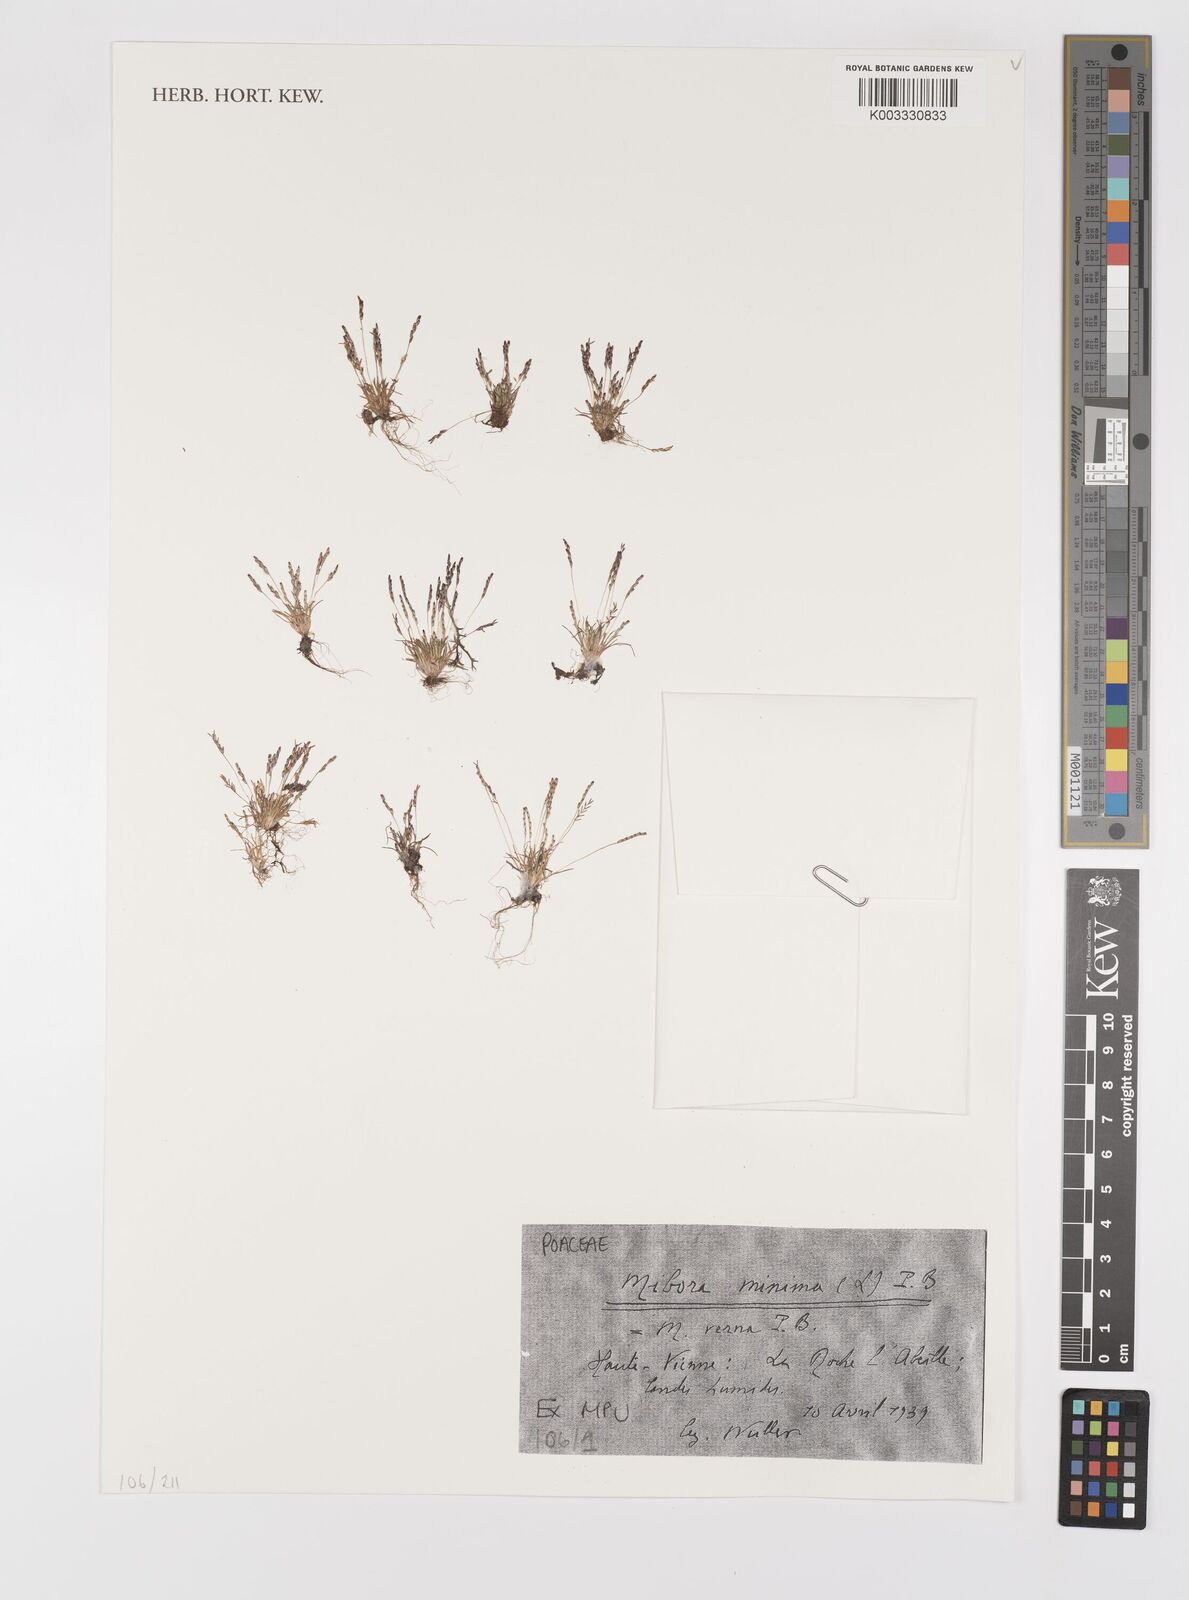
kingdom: Plantae
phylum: Tracheophyta
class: Liliopsida
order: Poales
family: Poaceae
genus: Mibora
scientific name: Mibora minima
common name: Early sand-grass
